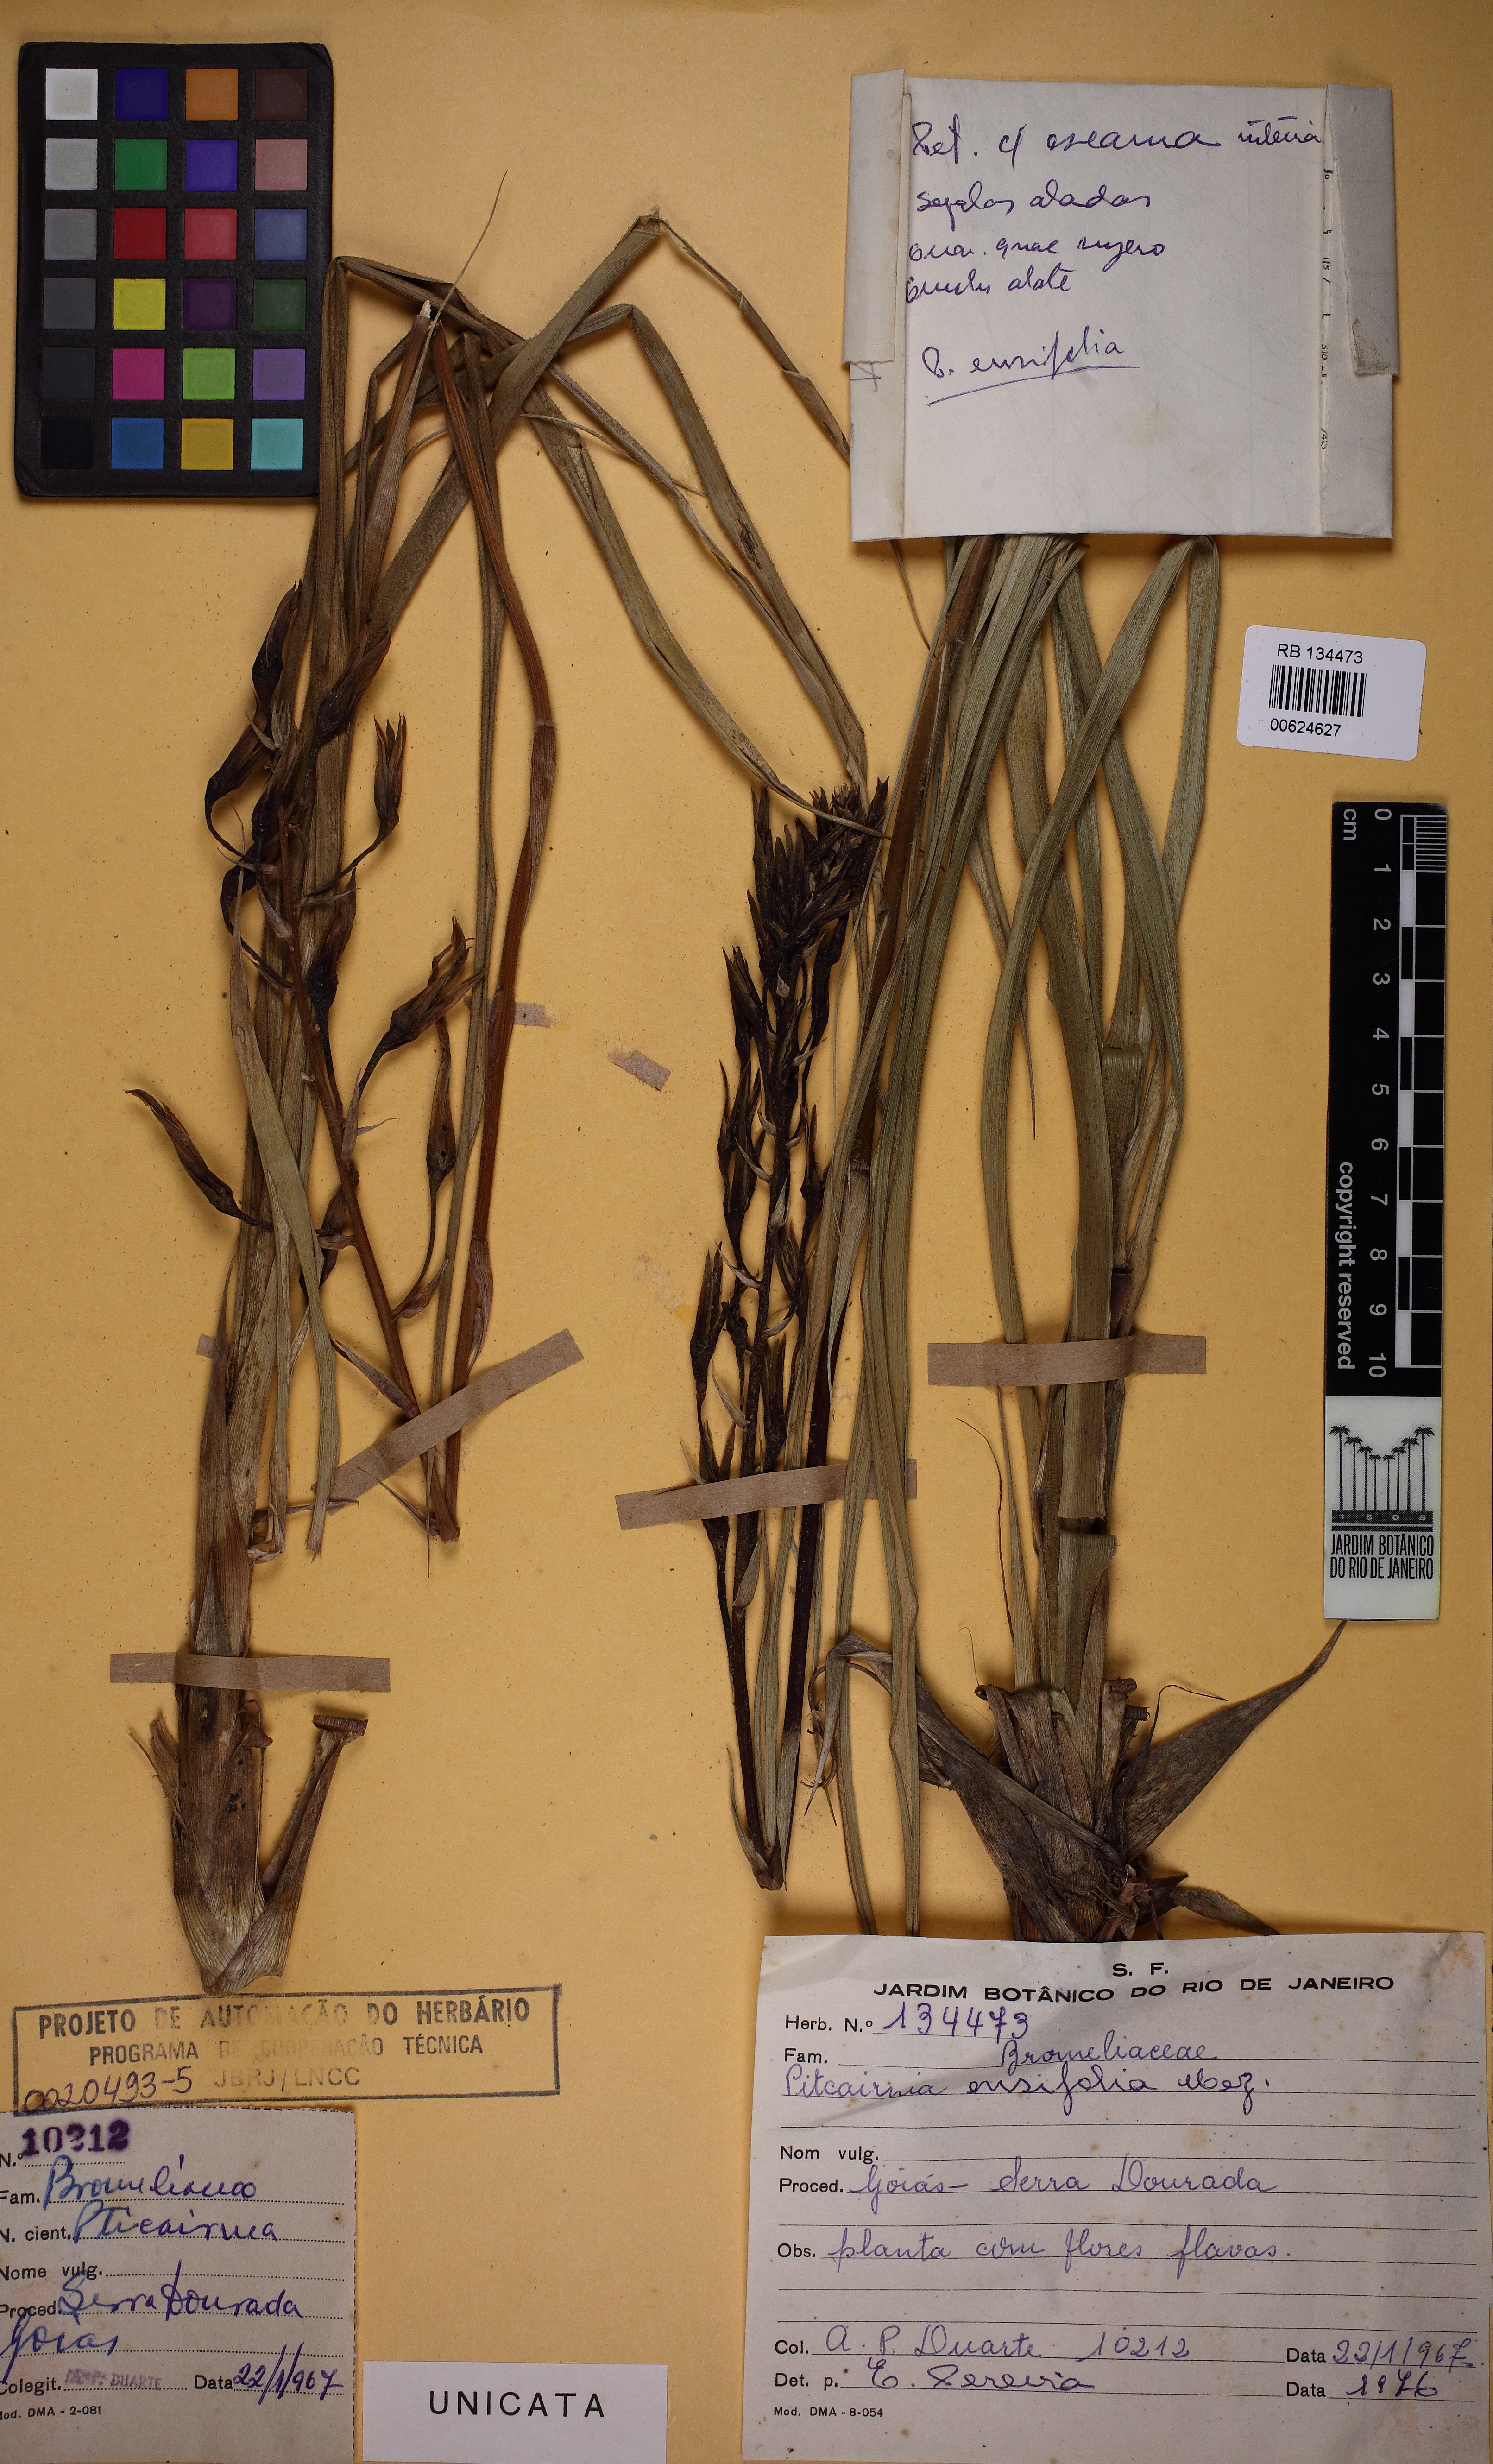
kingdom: Plantae
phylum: Tracheophyta
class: Liliopsida
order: Poales
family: Bromeliaceae
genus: Pitcairnia
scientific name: Pitcairnia ensifolia
